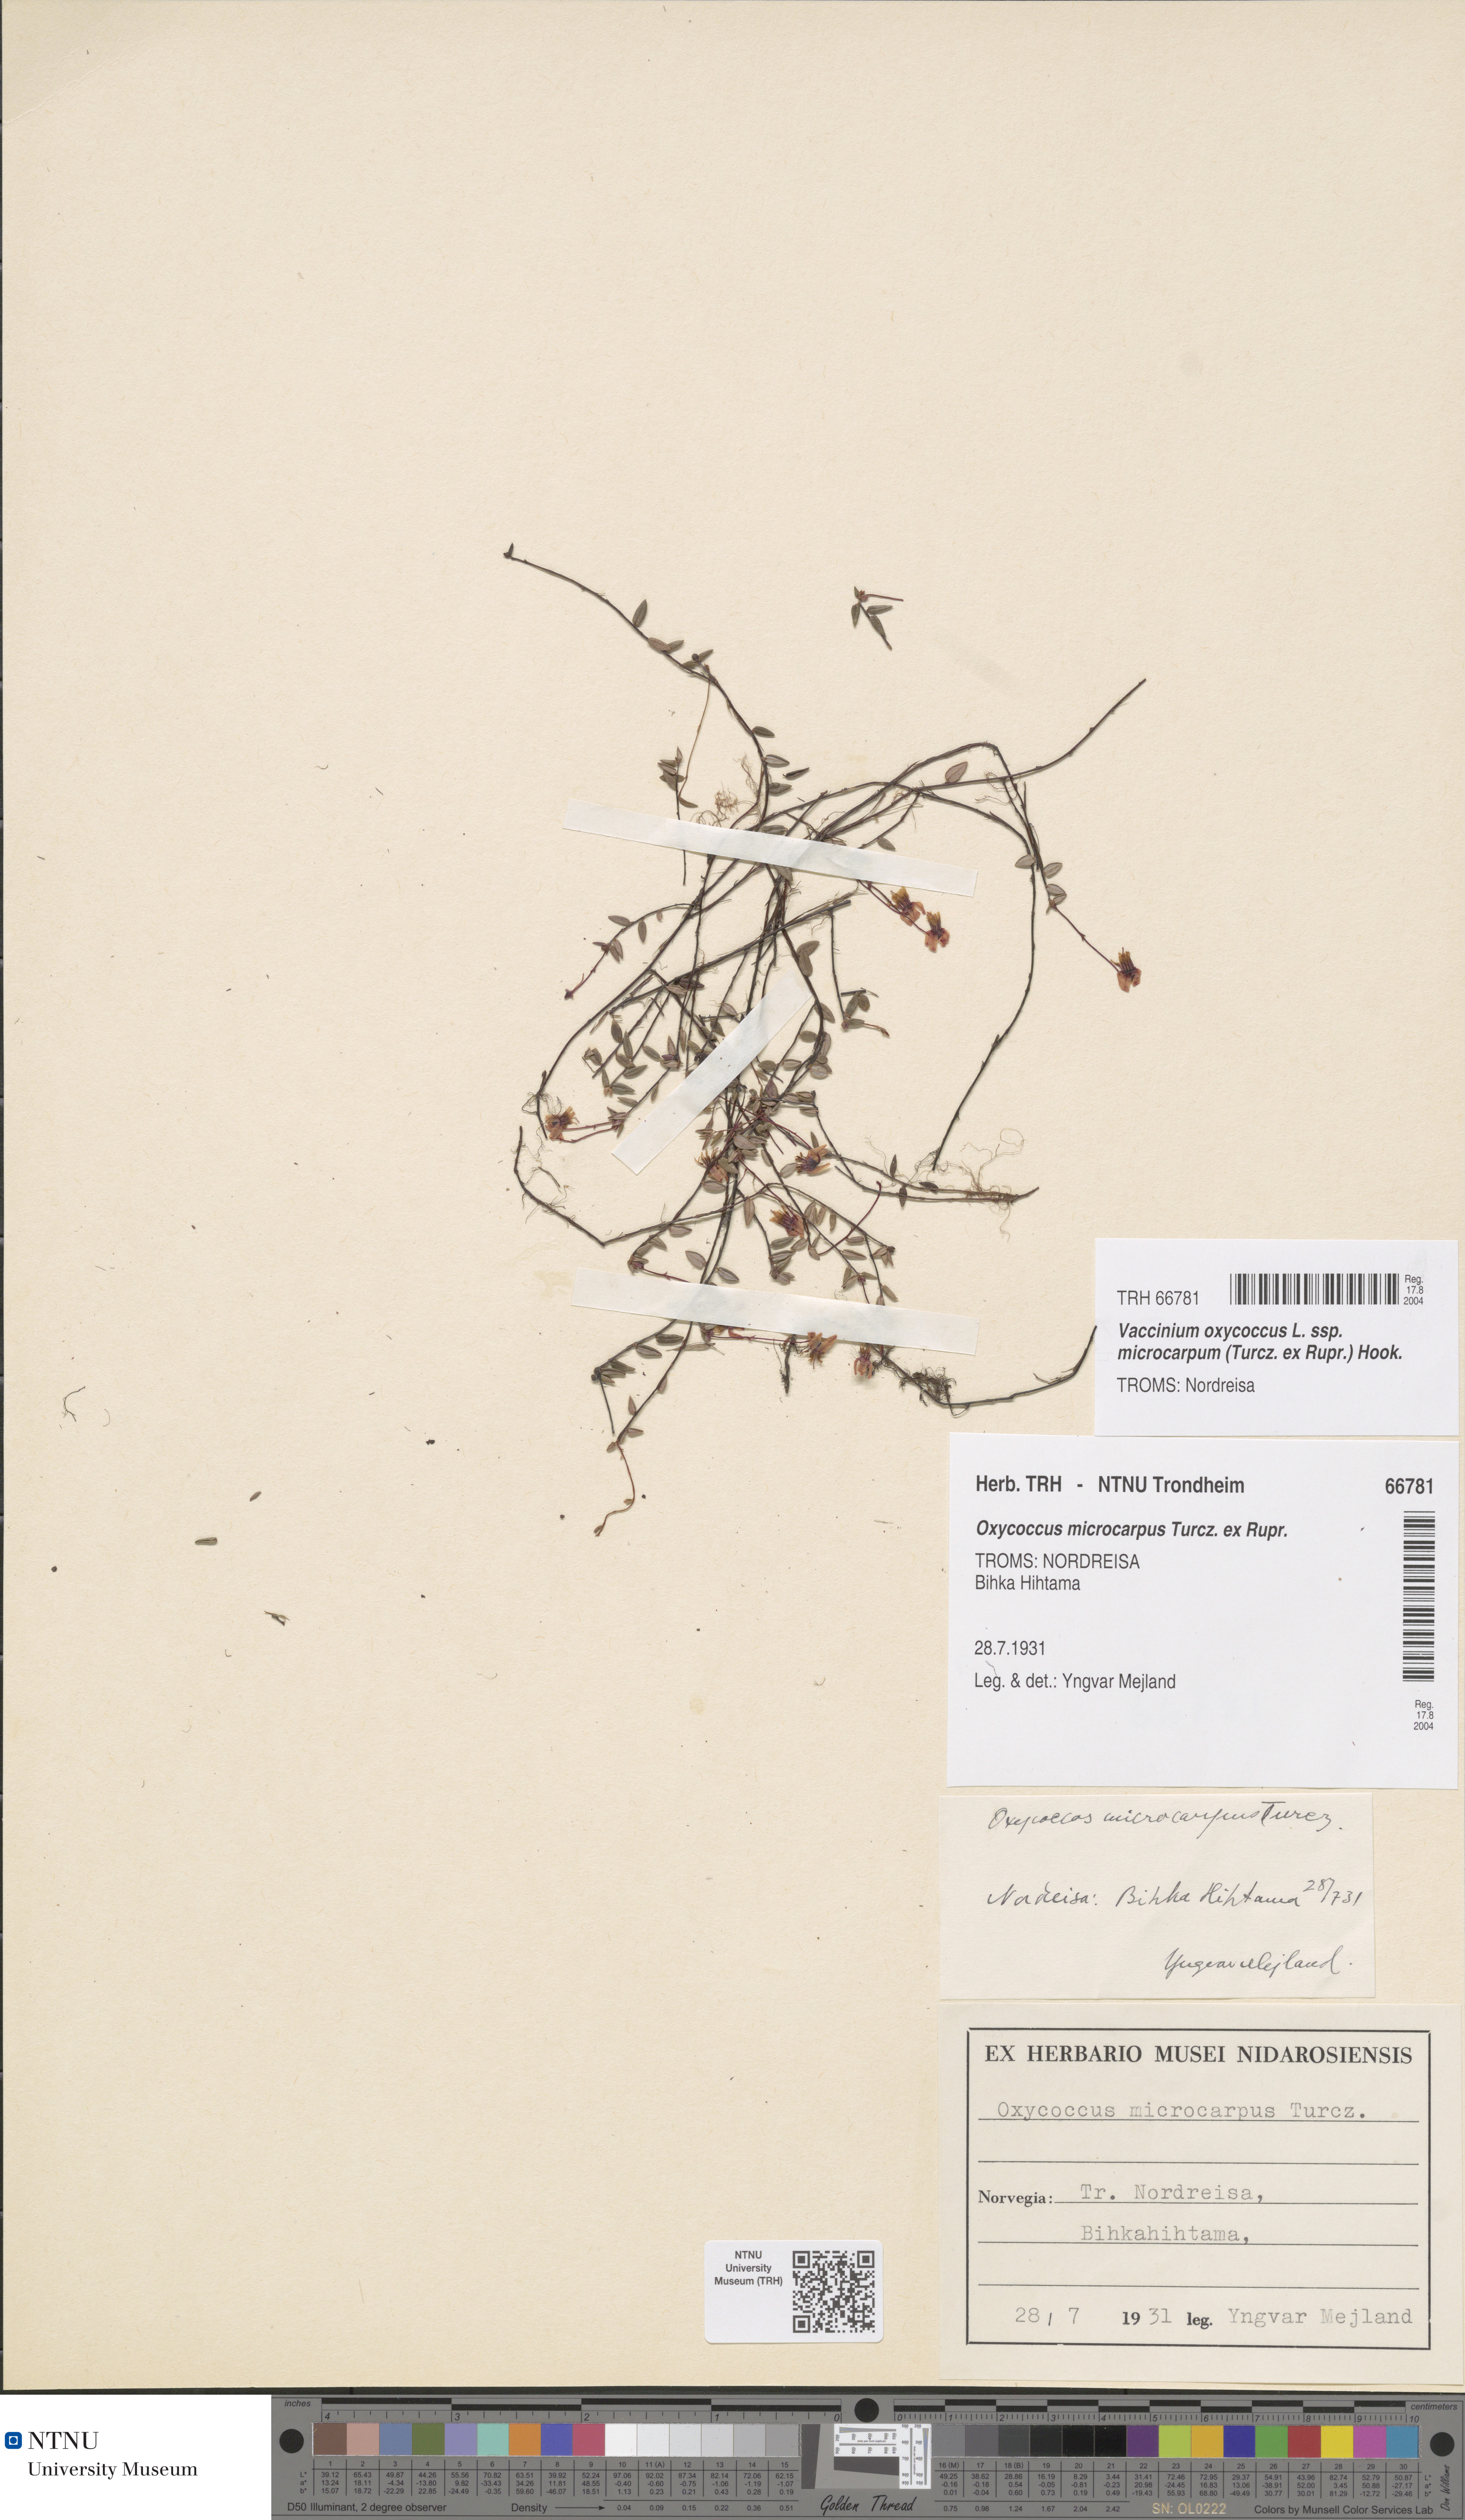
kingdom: Plantae
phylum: Tracheophyta
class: Magnoliopsida
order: Ericales
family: Ericaceae
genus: Vaccinium
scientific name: Vaccinium microcarpum
